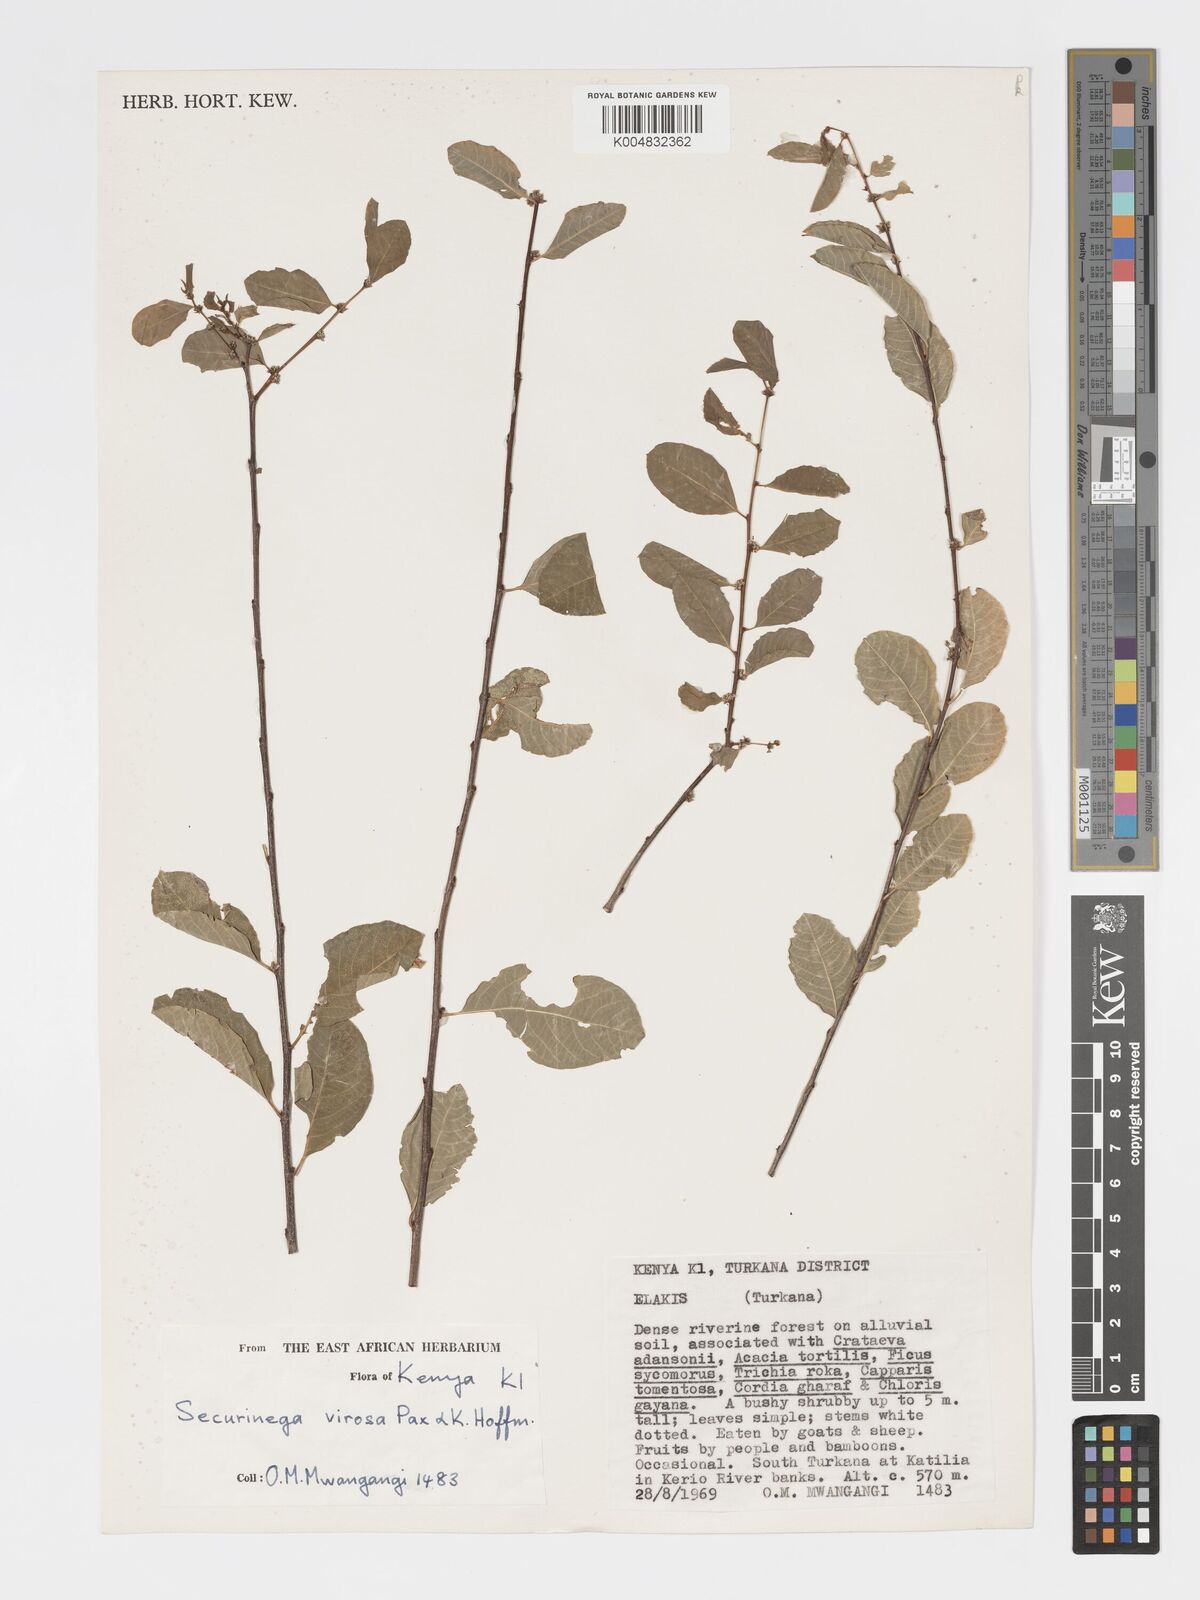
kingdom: Plantae
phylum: Tracheophyta
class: Magnoliopsida
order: Malpighiales
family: Phyllanthaceae
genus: Flueggea
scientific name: Flueggea virosa
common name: Common bushweed
